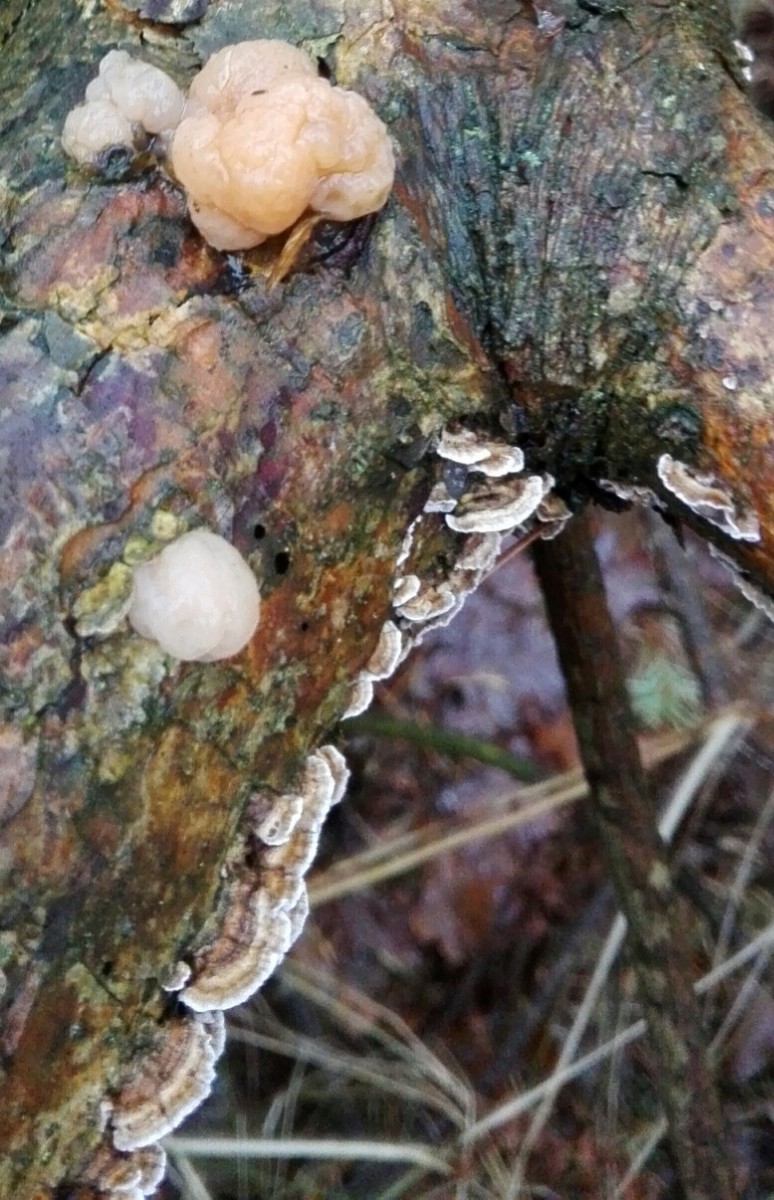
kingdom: Fungi
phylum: Basidiomycota
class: Tremellomycetes
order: Tremellales
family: Naemateliaceae
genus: Naematelia
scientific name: Naematelia encephala
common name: fyrre-bævresvamp
